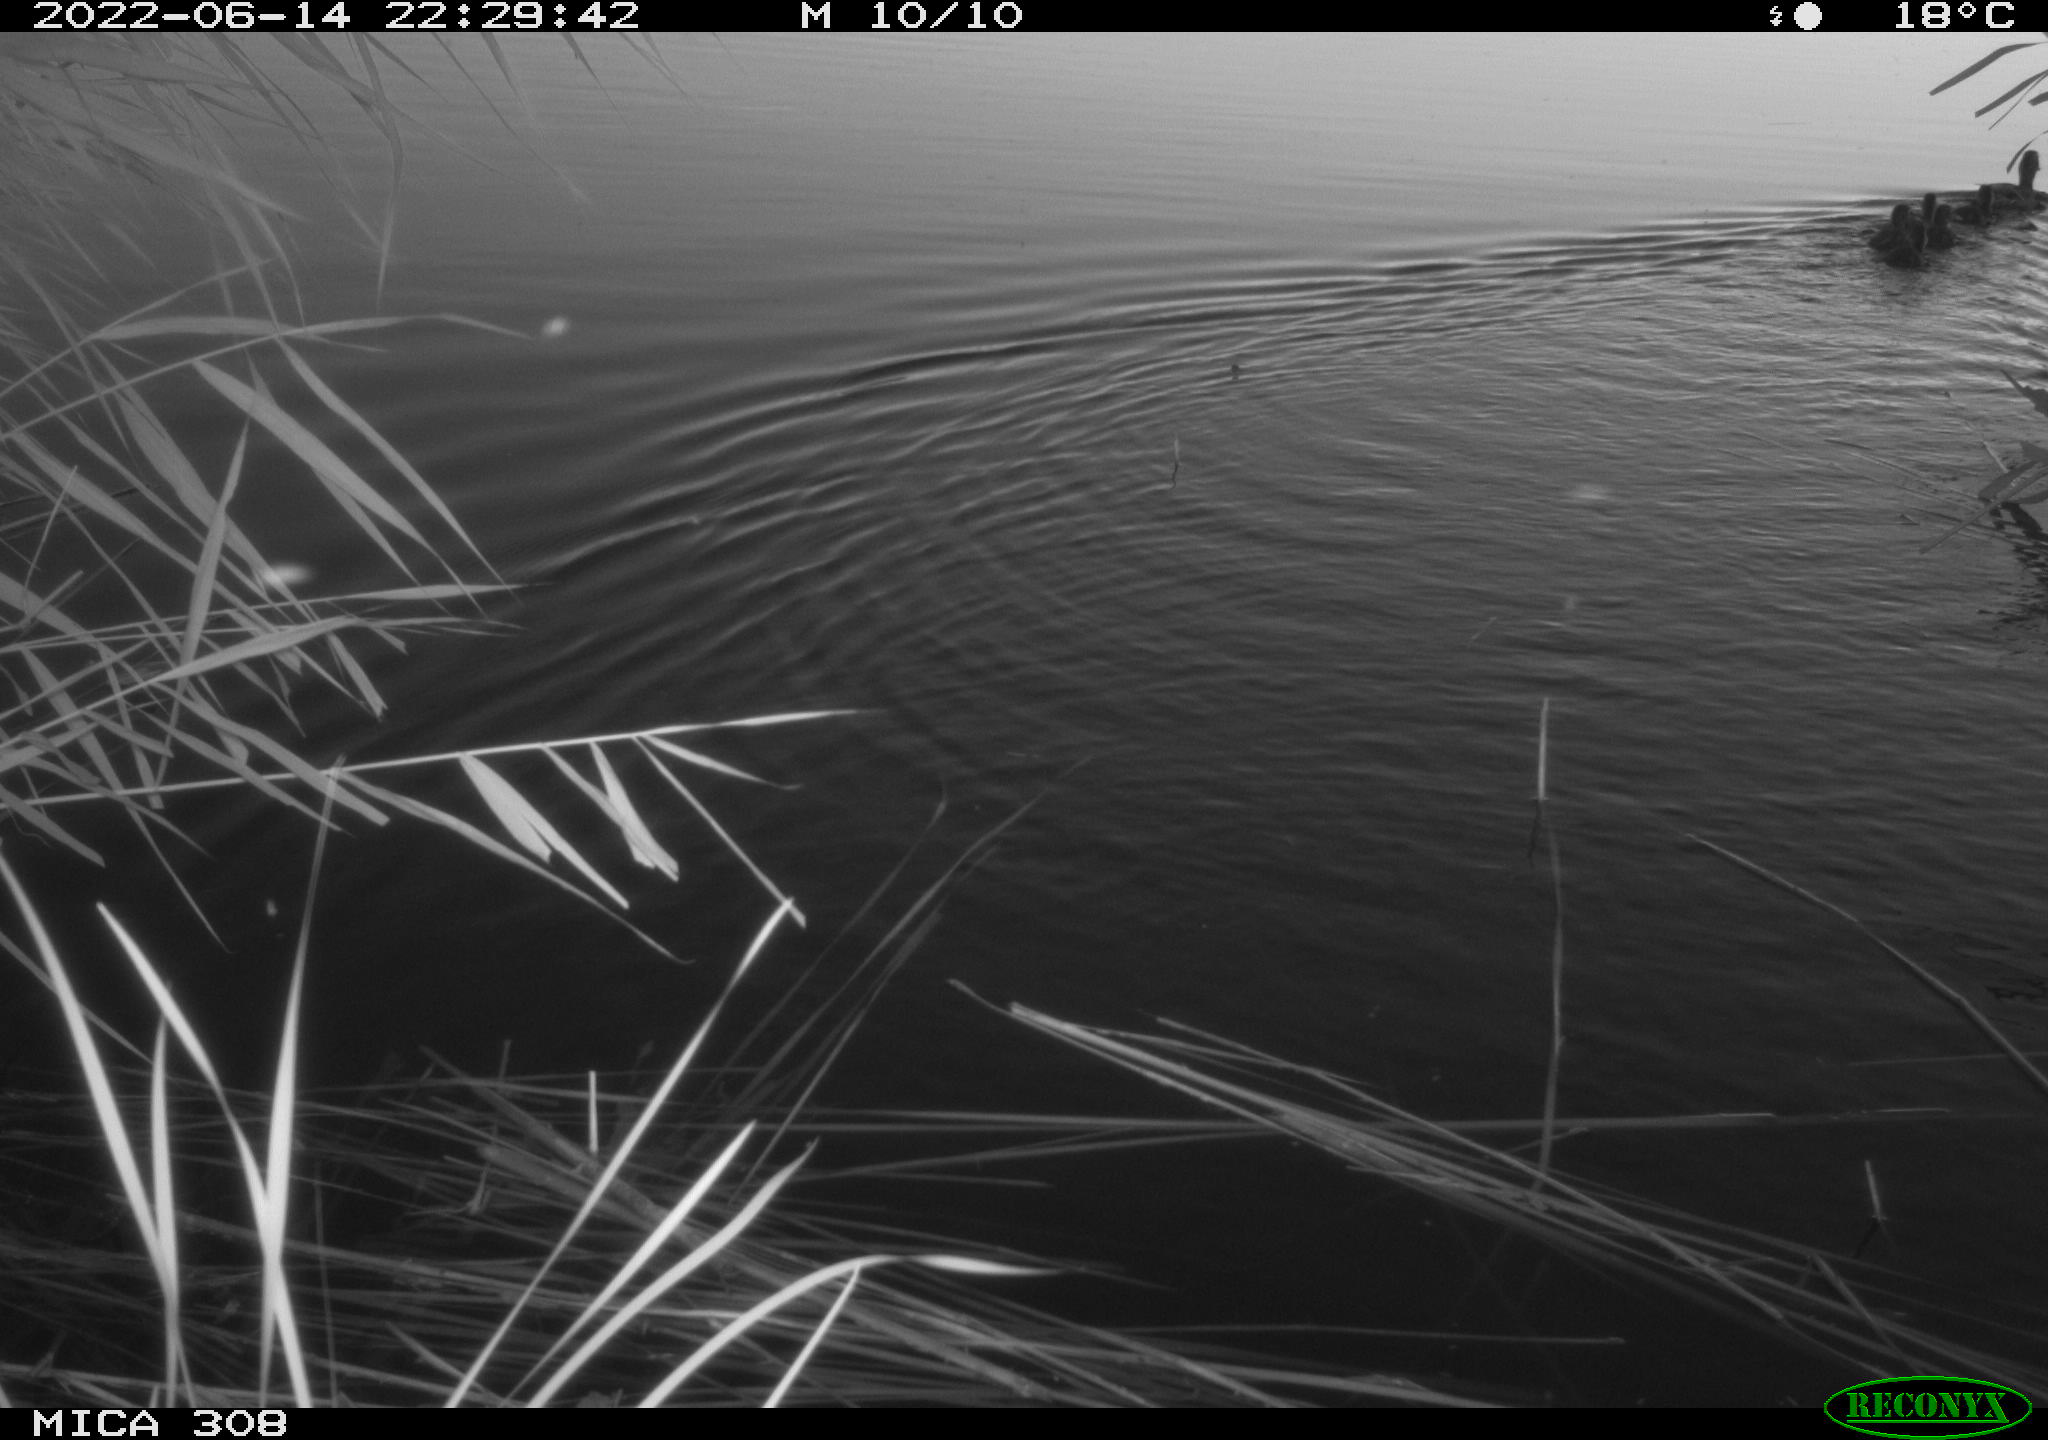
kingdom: Animalia
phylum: Chordata
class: Aves
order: Anseriformes
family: Anatidae
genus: Anas
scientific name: Anas platyrhynchos
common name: Mallard
